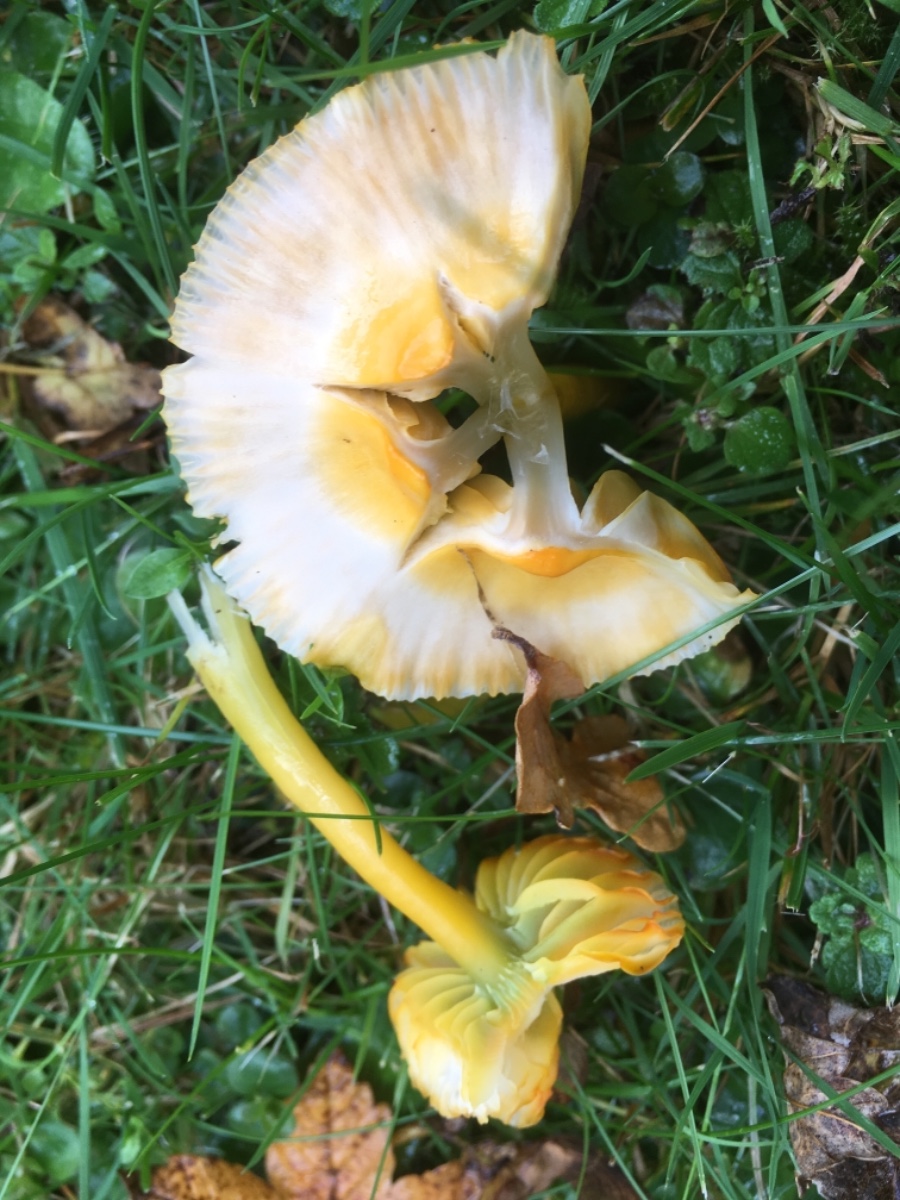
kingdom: Fungi
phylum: Basidiomycota
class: Agaricomycetes
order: Agaricales
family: Hygrophoraceae
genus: Gliophorus
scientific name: Gliophorus psittacinus
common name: papegøje-vokshat
